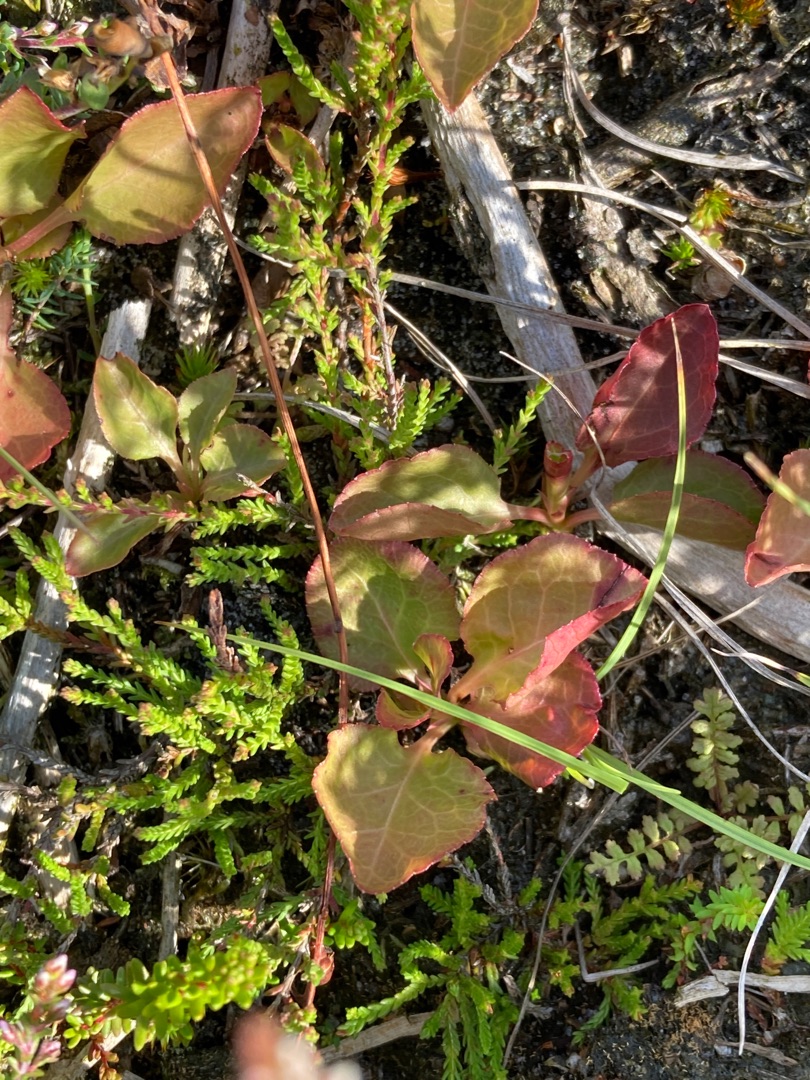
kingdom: Plantae
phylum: Tracheophyta
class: Magnoliopsida
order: Ericales
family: Ericaceae
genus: Pyrola
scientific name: Pyrola minor
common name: Liden vintergrøn
